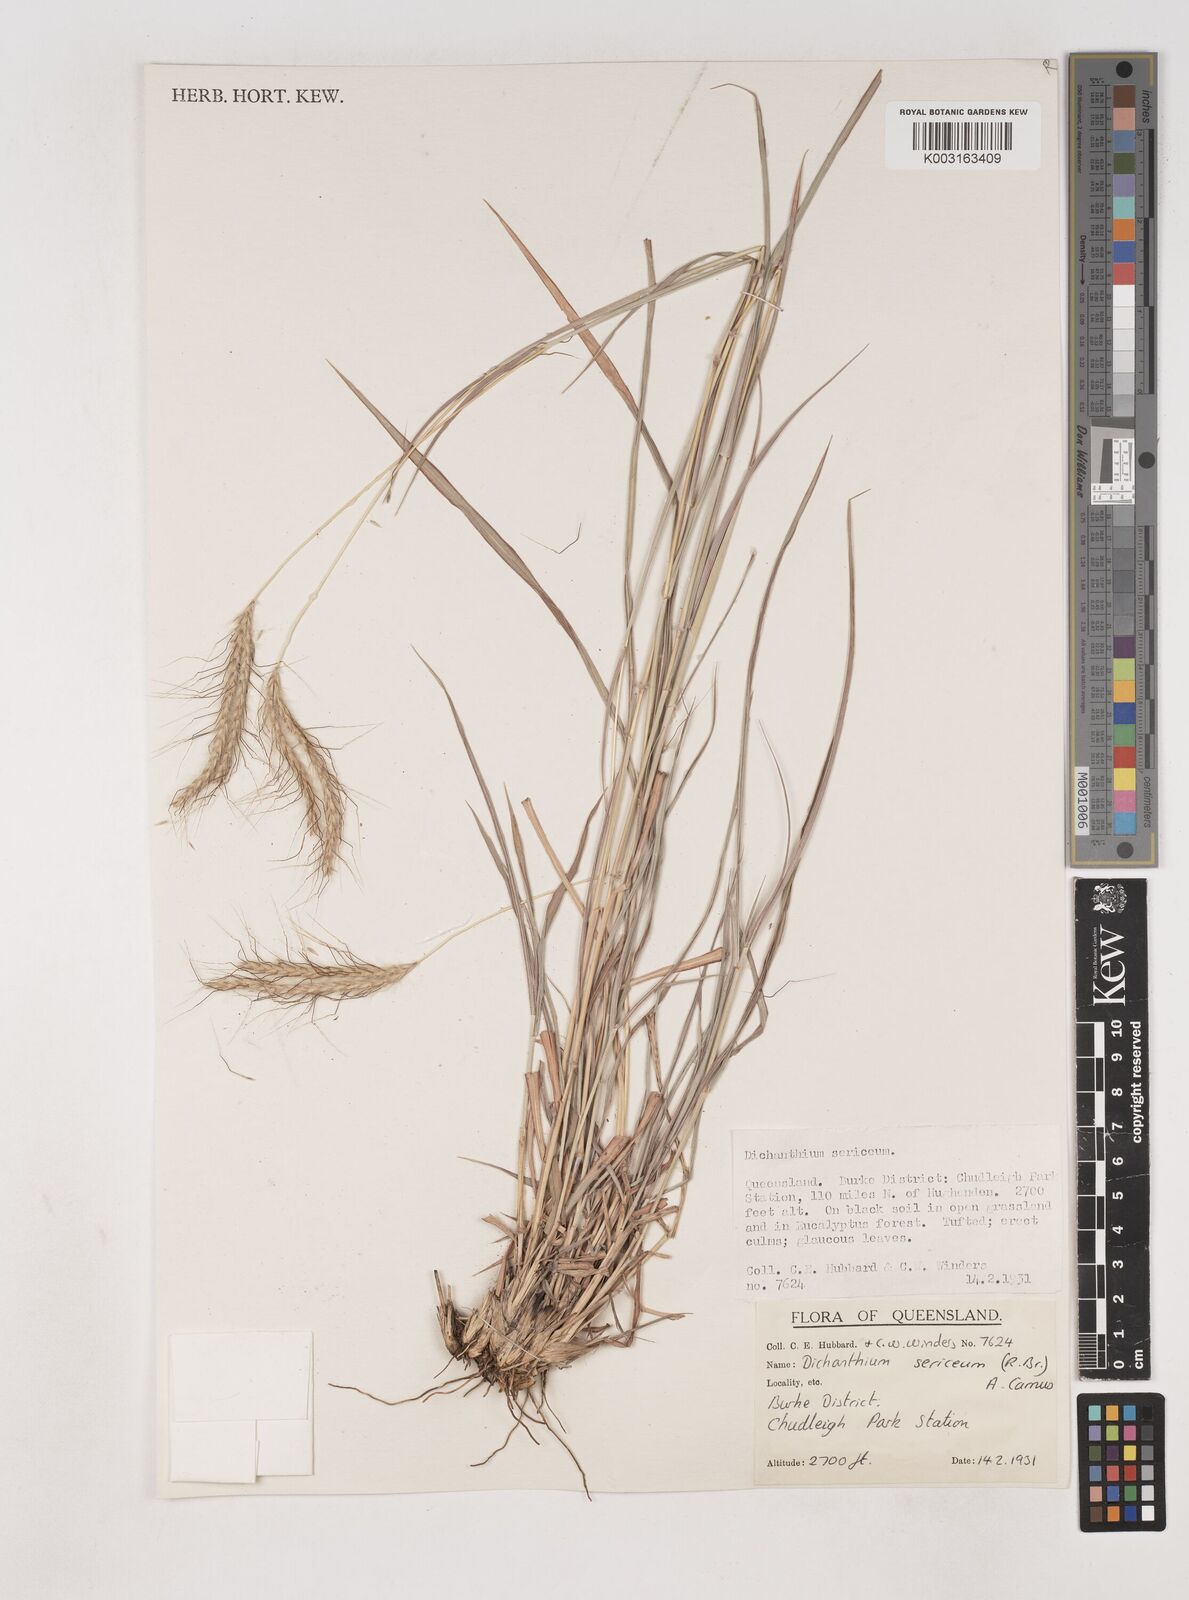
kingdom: Plantae
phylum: Tracheophyta
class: Liliopsida
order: Poales
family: Poaceae
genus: Dichanthium
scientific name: Dichanthium sericeum
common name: Silky bluestem
